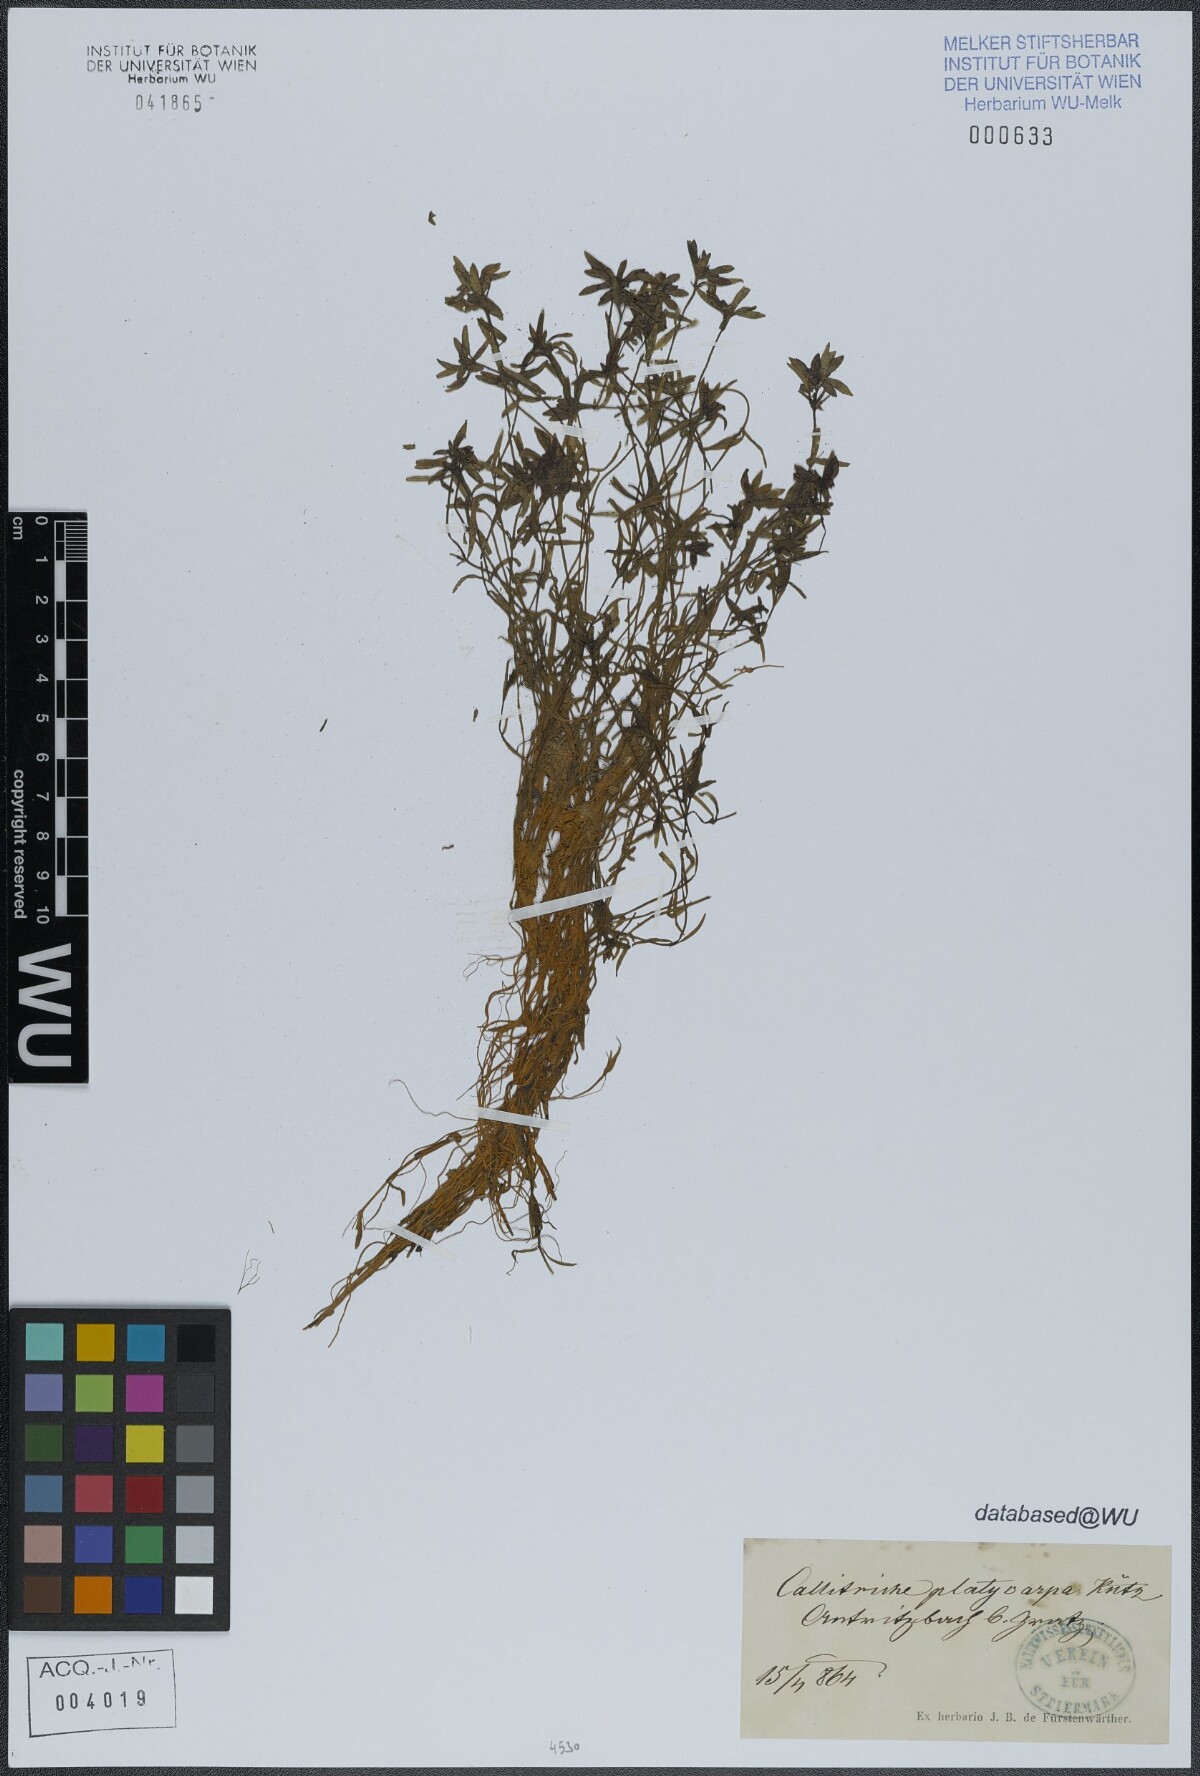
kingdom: Plantae
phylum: Tracheophyta
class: Magnoliopsida
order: Lamiales
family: Plantaginaceae
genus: Callitriche
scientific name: Callitriche platycarpa
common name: Various-leaved water-starwort
